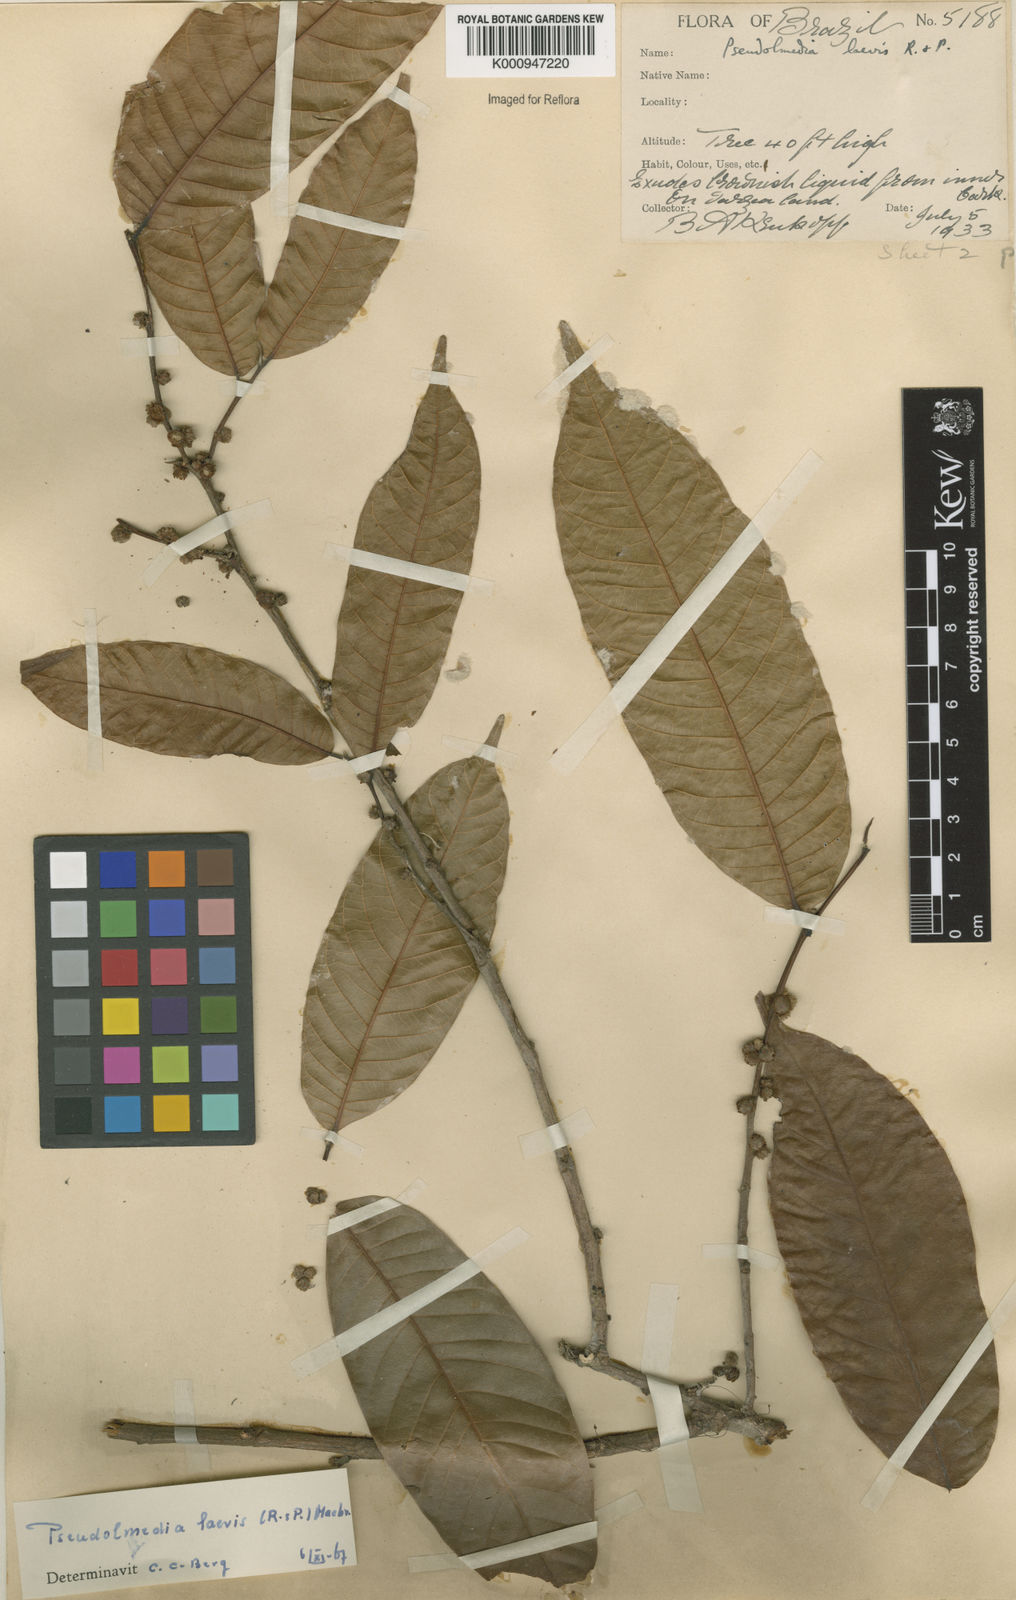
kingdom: Plantae
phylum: Tracheophyta
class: Magnoliopsida
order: Rosales
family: Moraceae
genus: Pseudolmedia
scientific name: Pseudolmedia laevis
